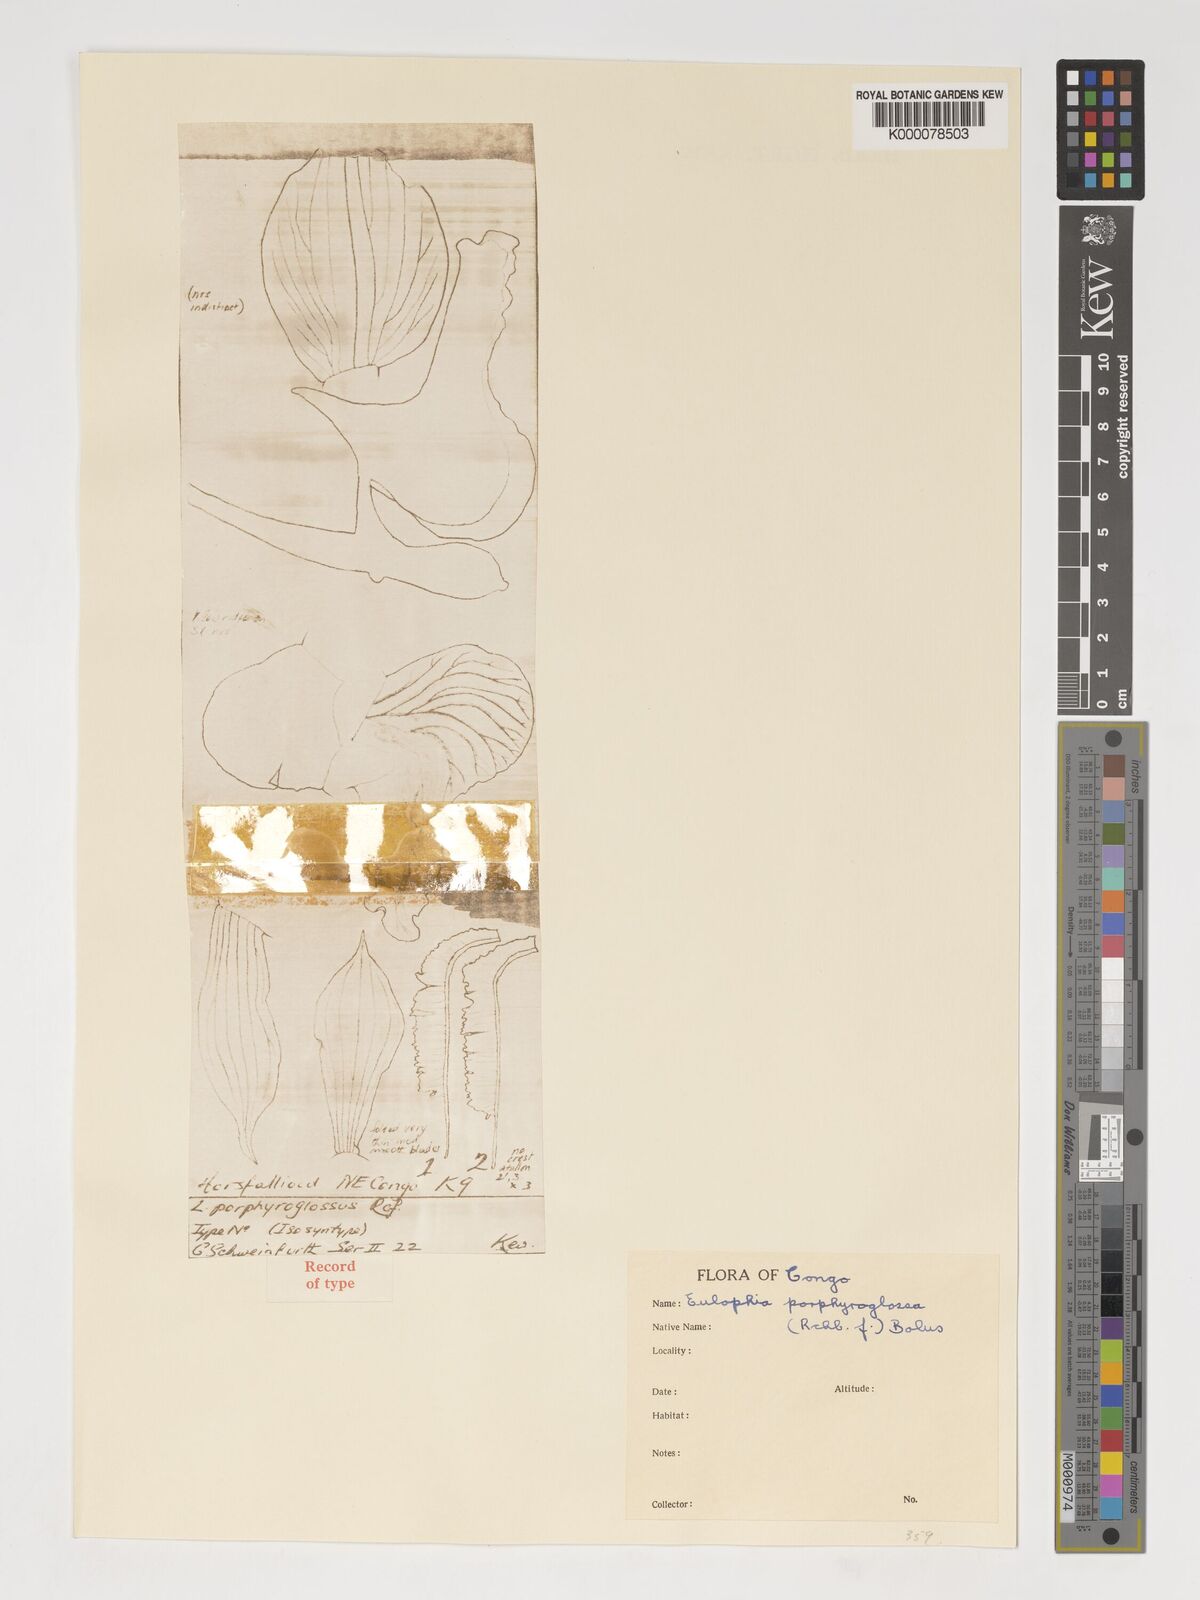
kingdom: Plantae
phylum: Tracheophyta
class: Liliopsida
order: Asparagales
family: Orchidaceae
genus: Eulophia
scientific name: Eulophia horsfallii
